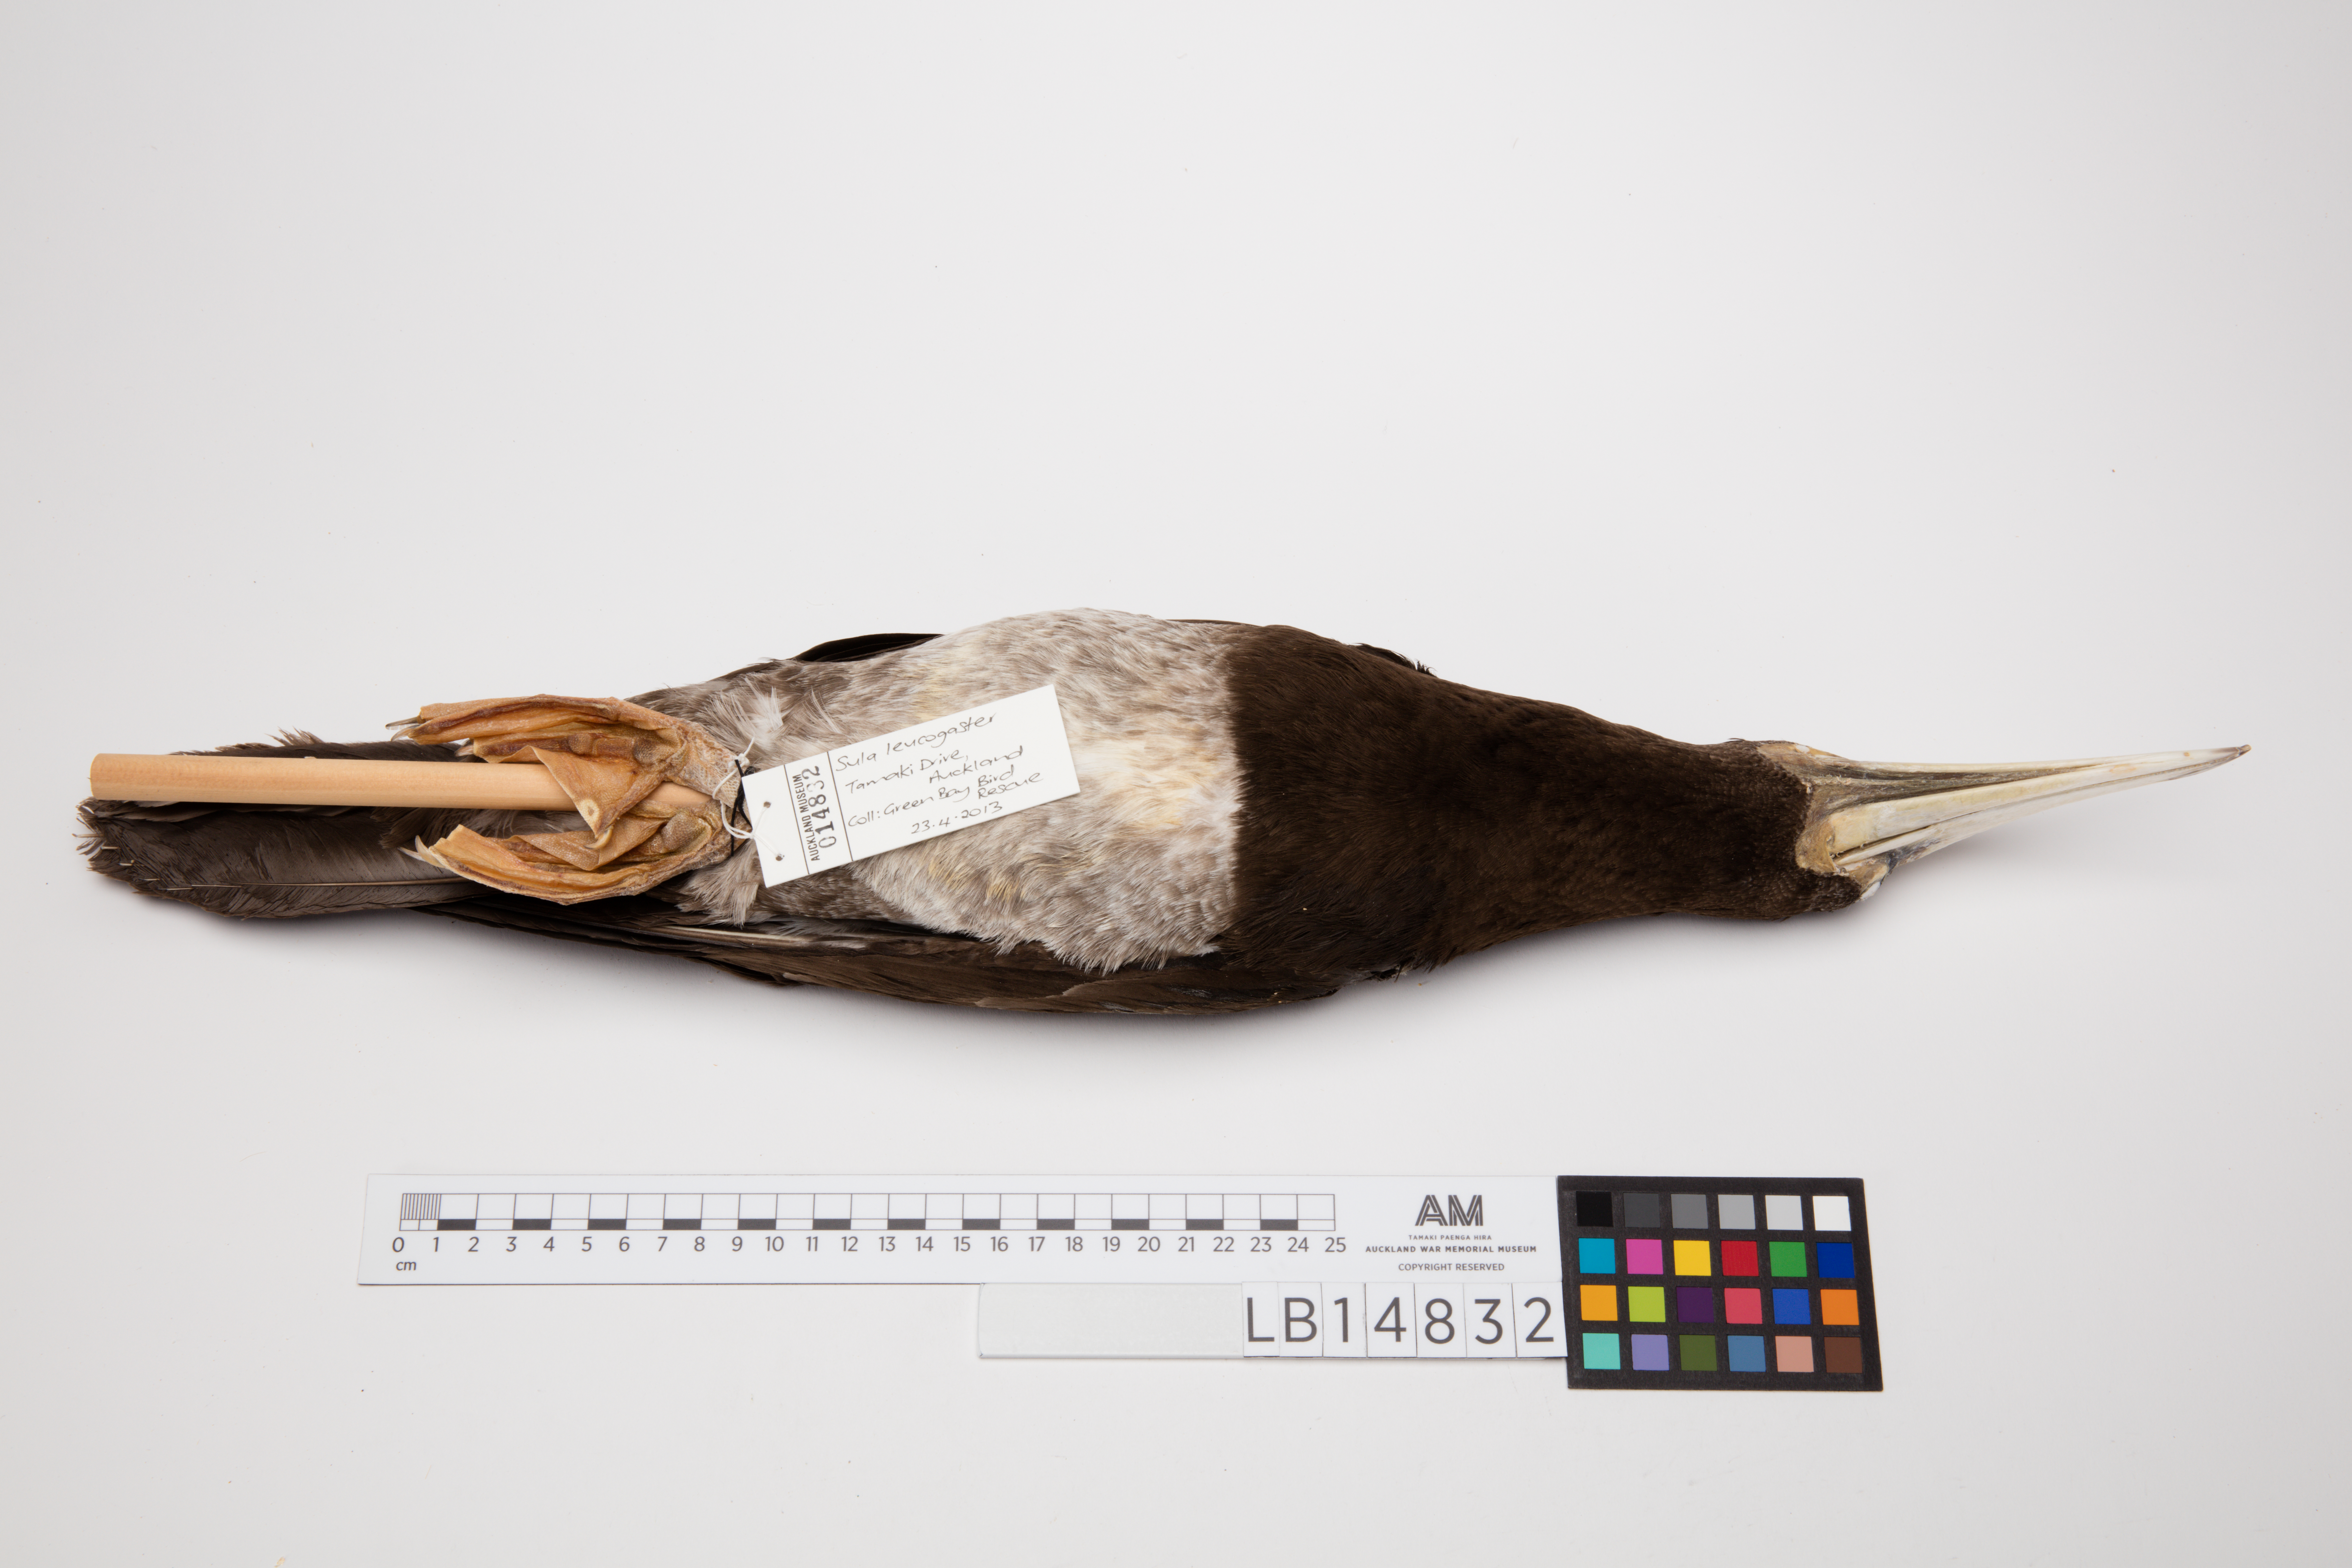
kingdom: Animalia
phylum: Chordata
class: Aves
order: Suliformes
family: Sulidae
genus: Sula
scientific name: Sula leucogaster
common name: Brown booby
